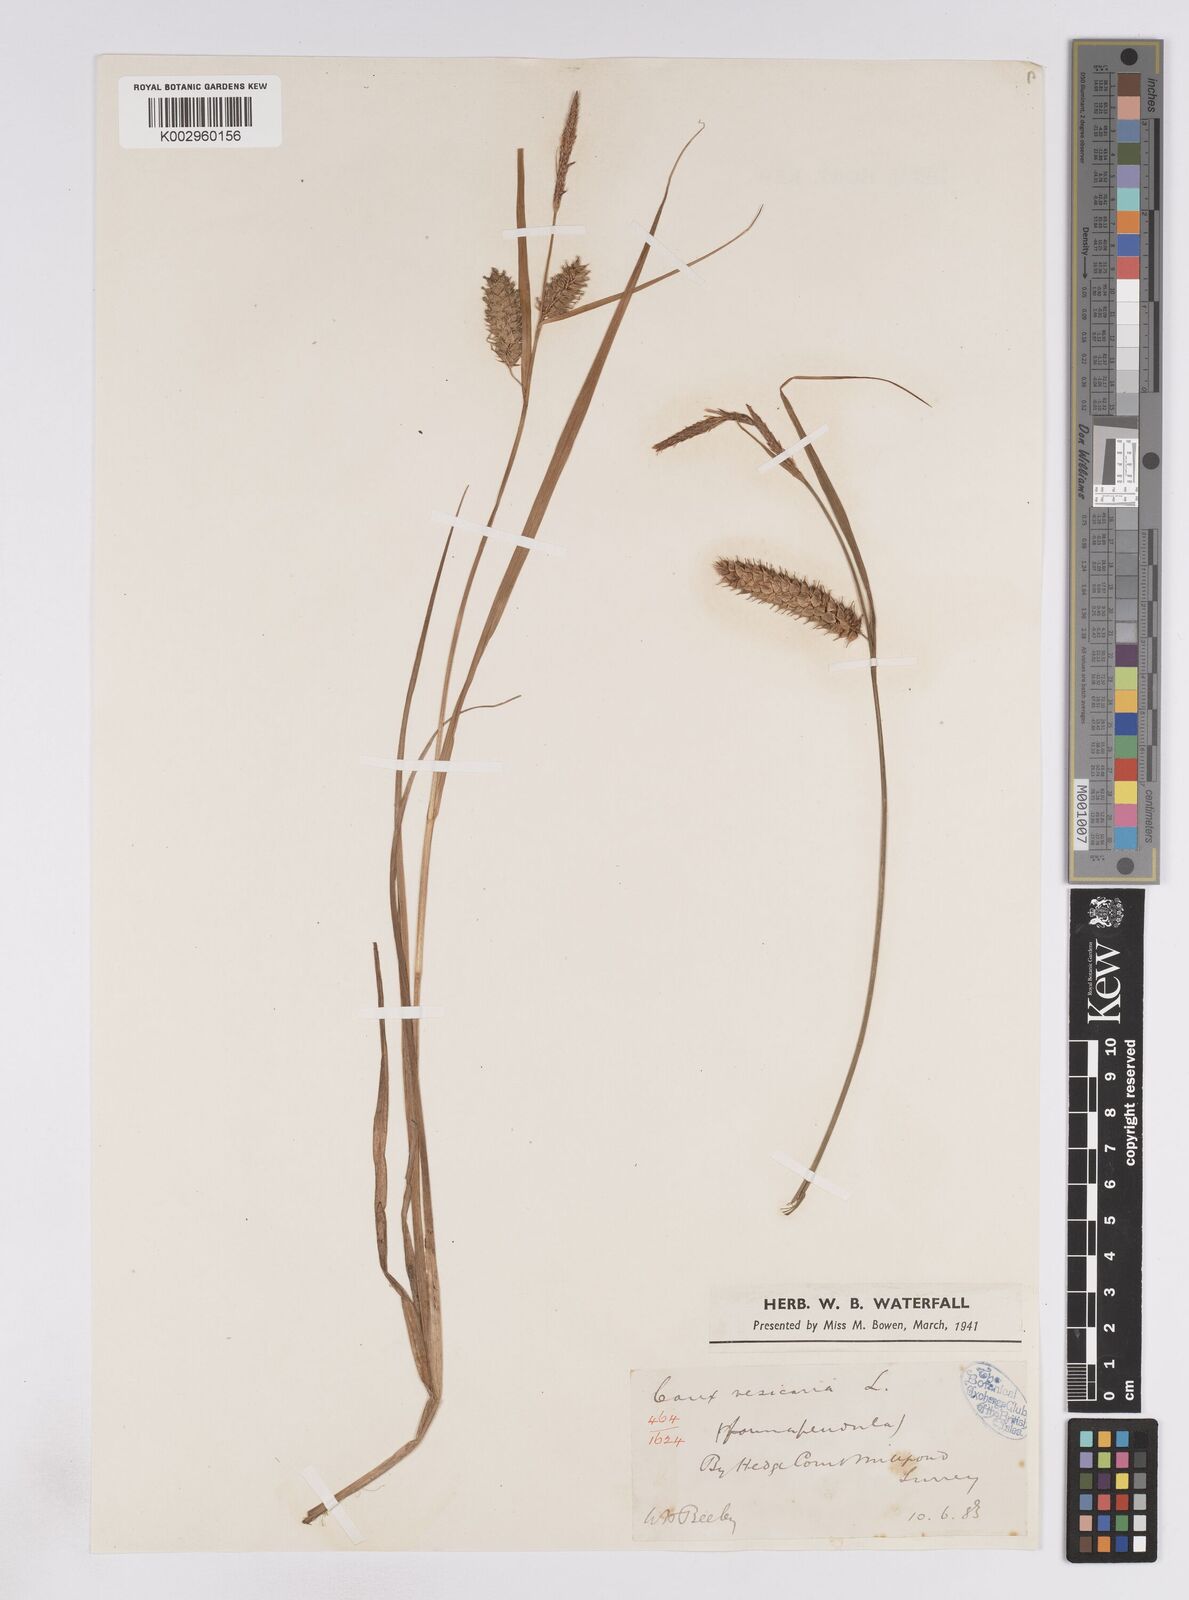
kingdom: Plantae
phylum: Tracheophyta
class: Liliopsida
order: Poales
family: Cyperaceae
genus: Carex
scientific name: Carex vesicaria
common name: Bladder-sedge
